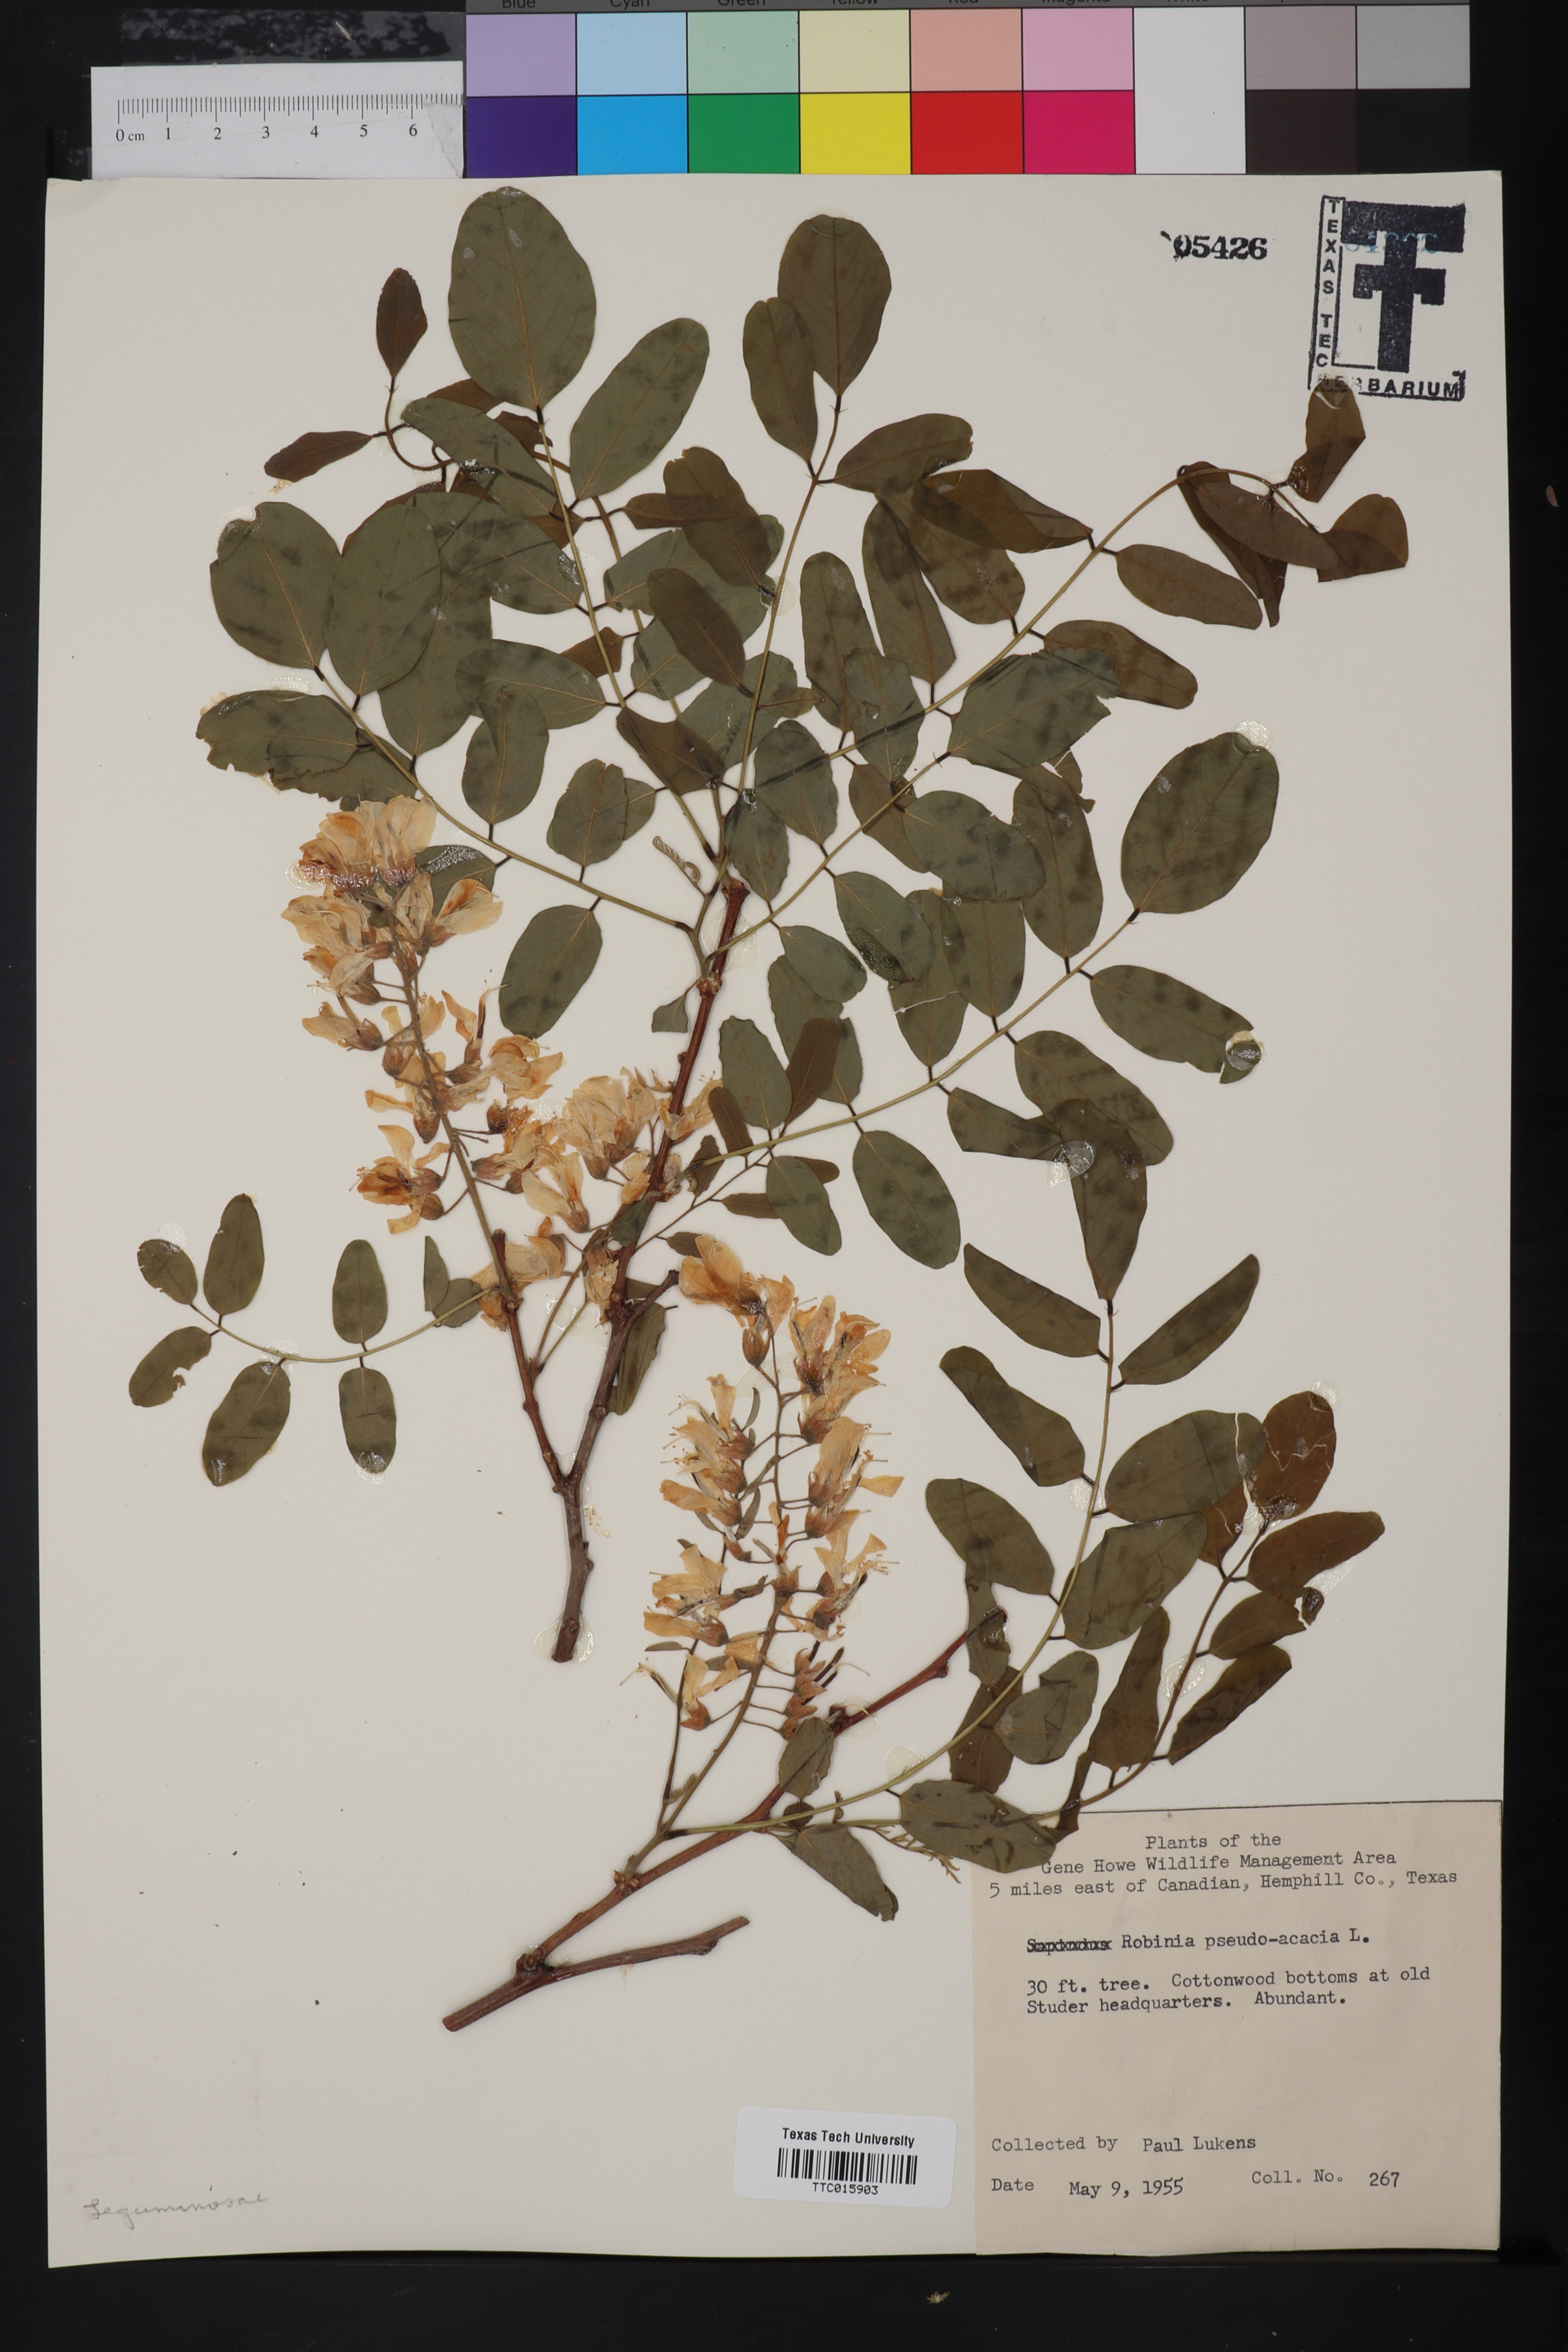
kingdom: Plantae
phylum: Tracheophyta
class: Magnoliopsida
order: Fabales
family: Fabaceae
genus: Robinia
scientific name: Robinia pseudoacacia
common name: Black locust
